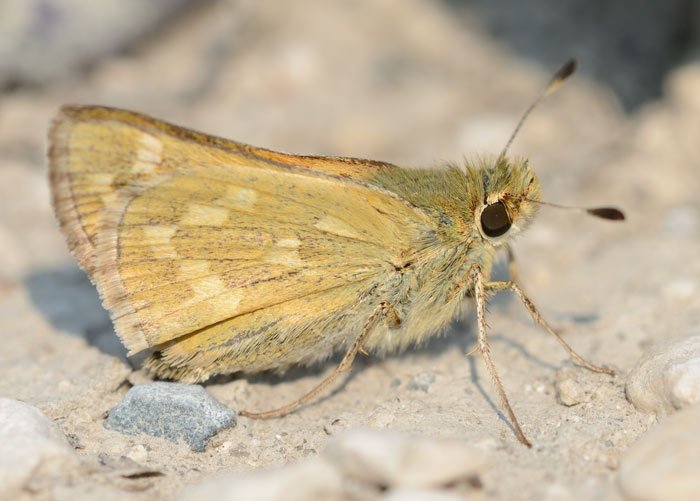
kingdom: Animalia
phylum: Arthropoda
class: Insecta
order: Lepidoptera
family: Hesperiidae
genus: Hesperia
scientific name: Hesperia comma
